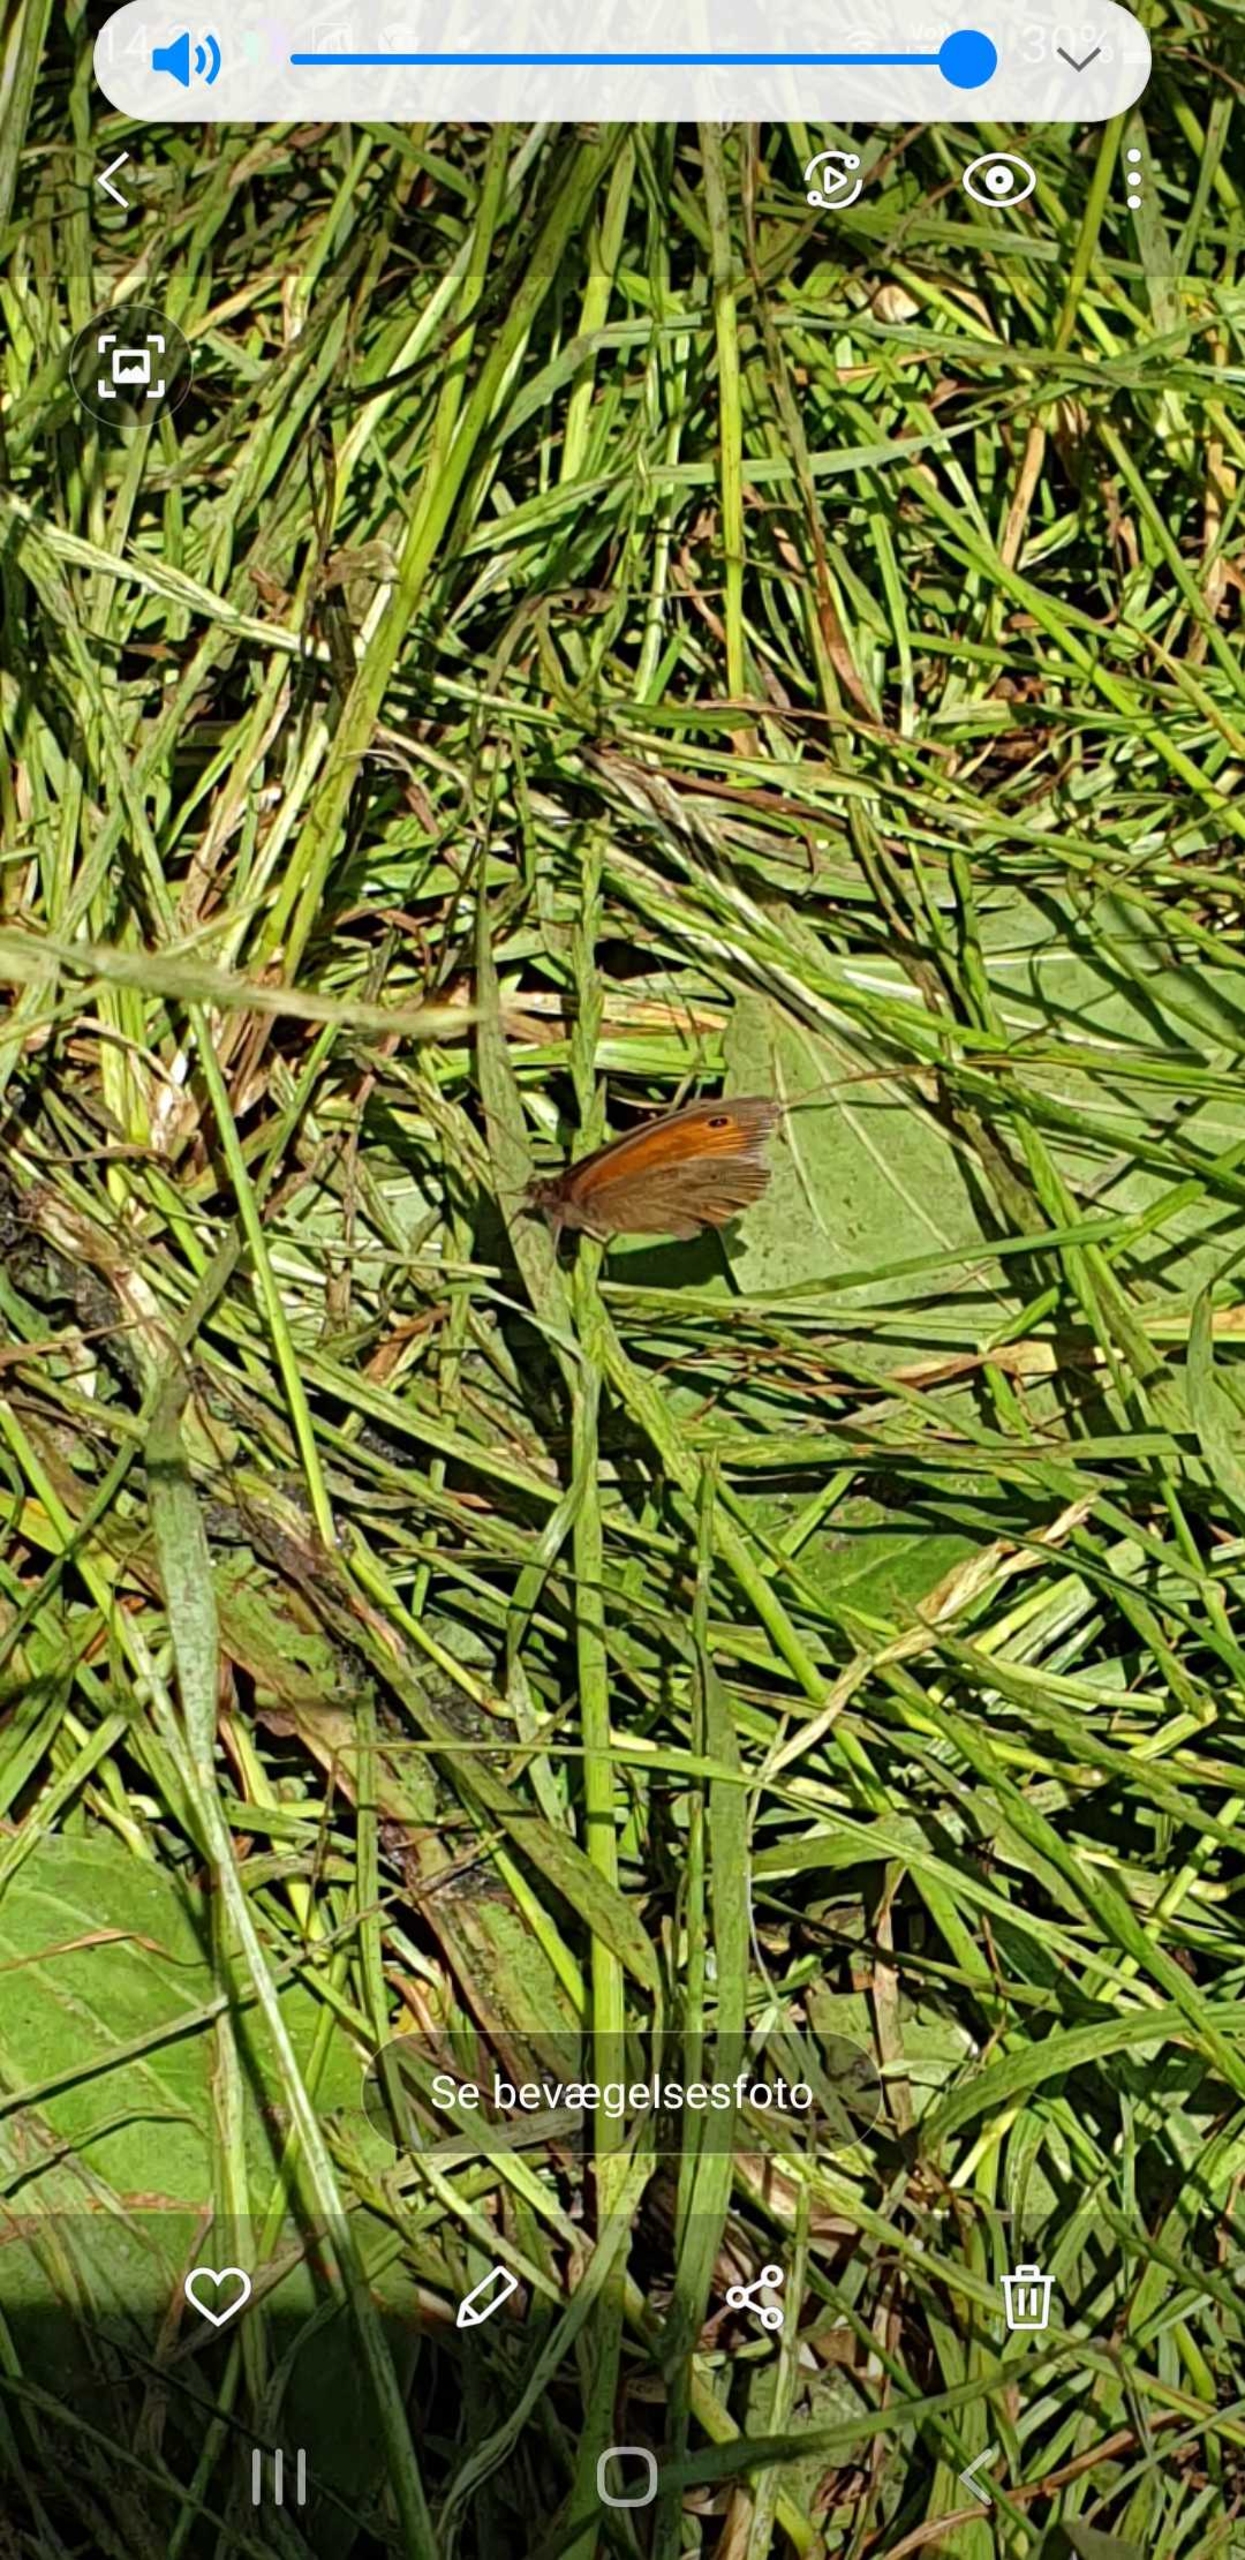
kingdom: Animalia
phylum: Arthropoda
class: Insecta
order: Lepidoptera
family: Nymphalidae
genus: Maniola
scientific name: Maniola jurtina
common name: Græsrandøje
